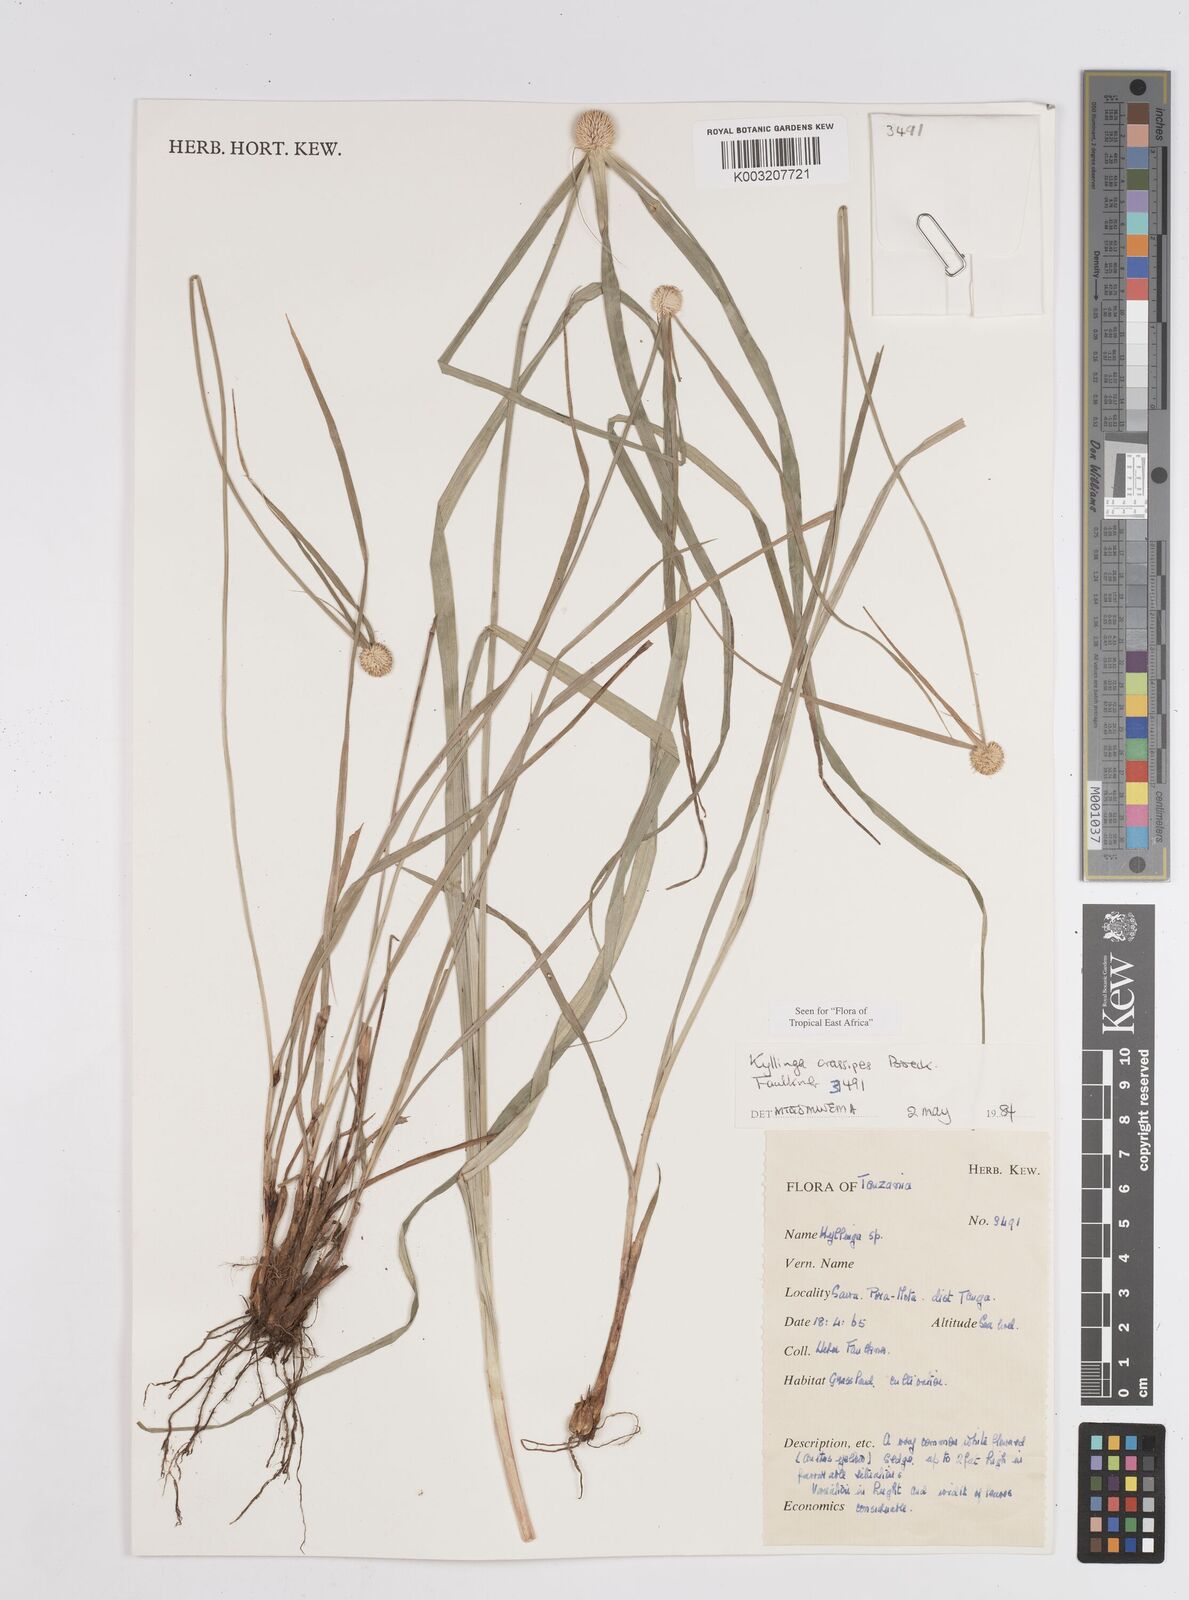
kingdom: Plantae
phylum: Tracheophyta
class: Liliopsida
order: Poales
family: Cyperaceae
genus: Cyperus
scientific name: Cyperus
